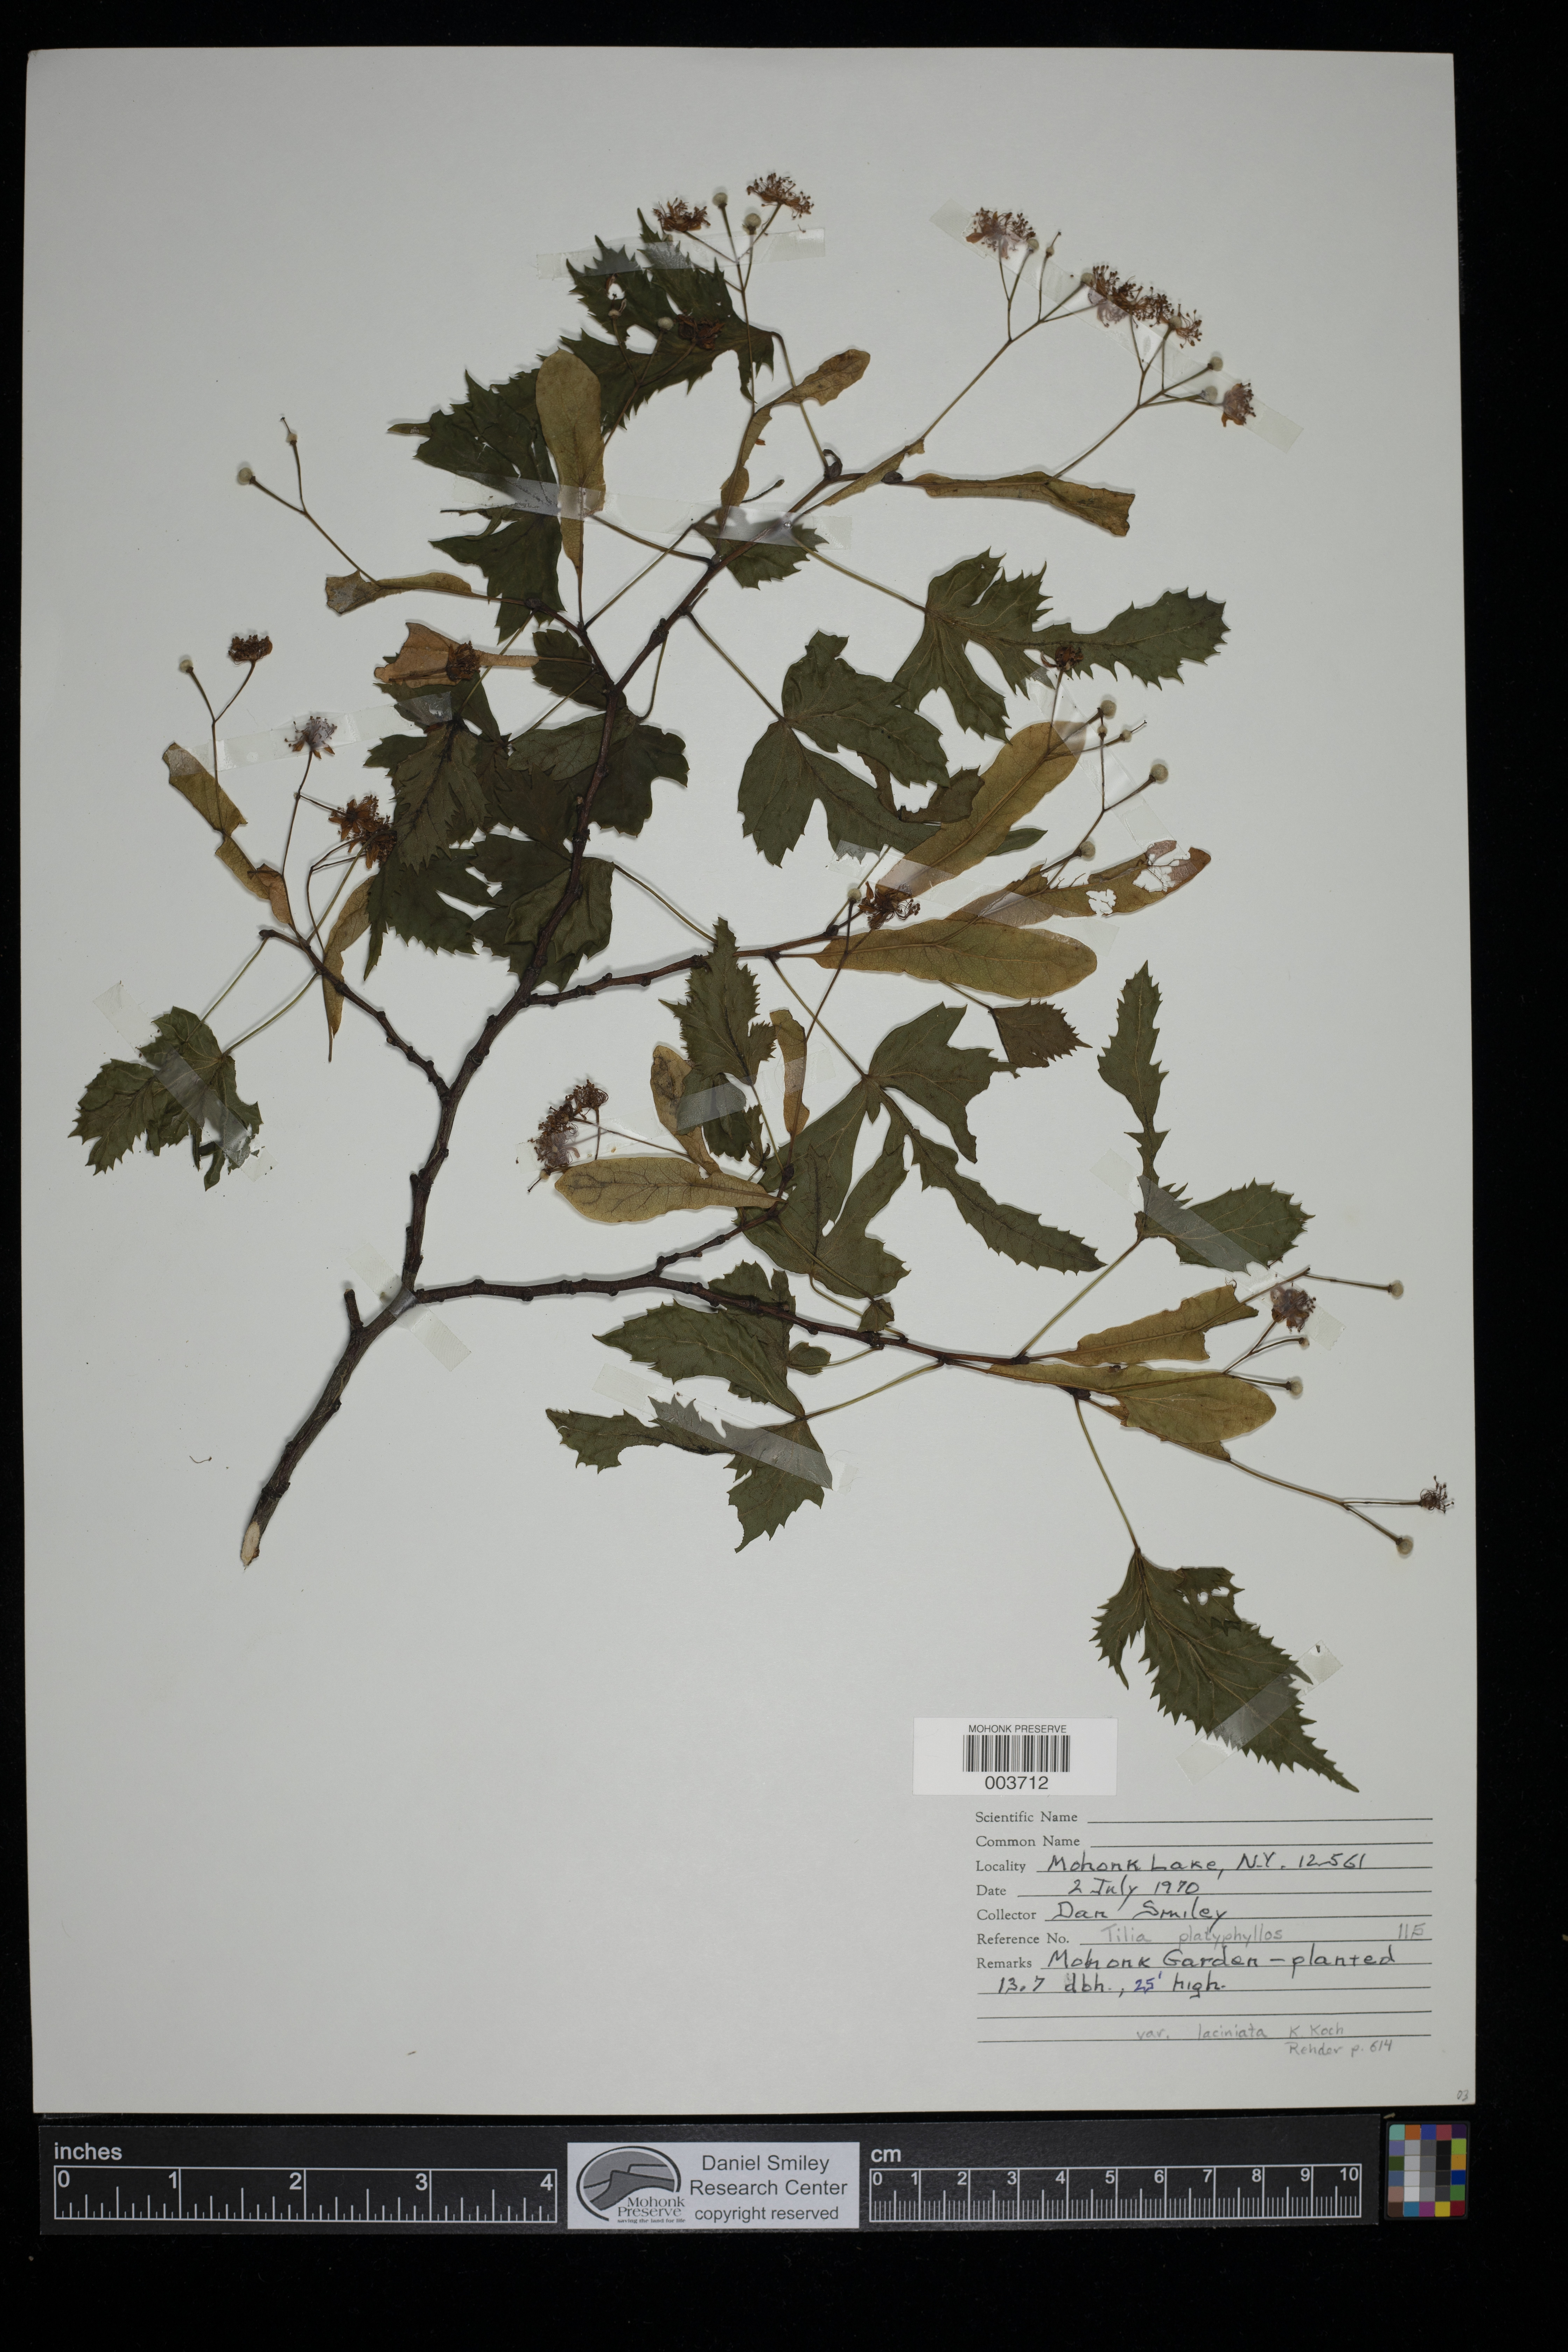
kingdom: Plantae
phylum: Tracheophyta
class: Magnoliopsida
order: Malvales
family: Malvaceae
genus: Tilia
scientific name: Tilia americana
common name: Basswood
